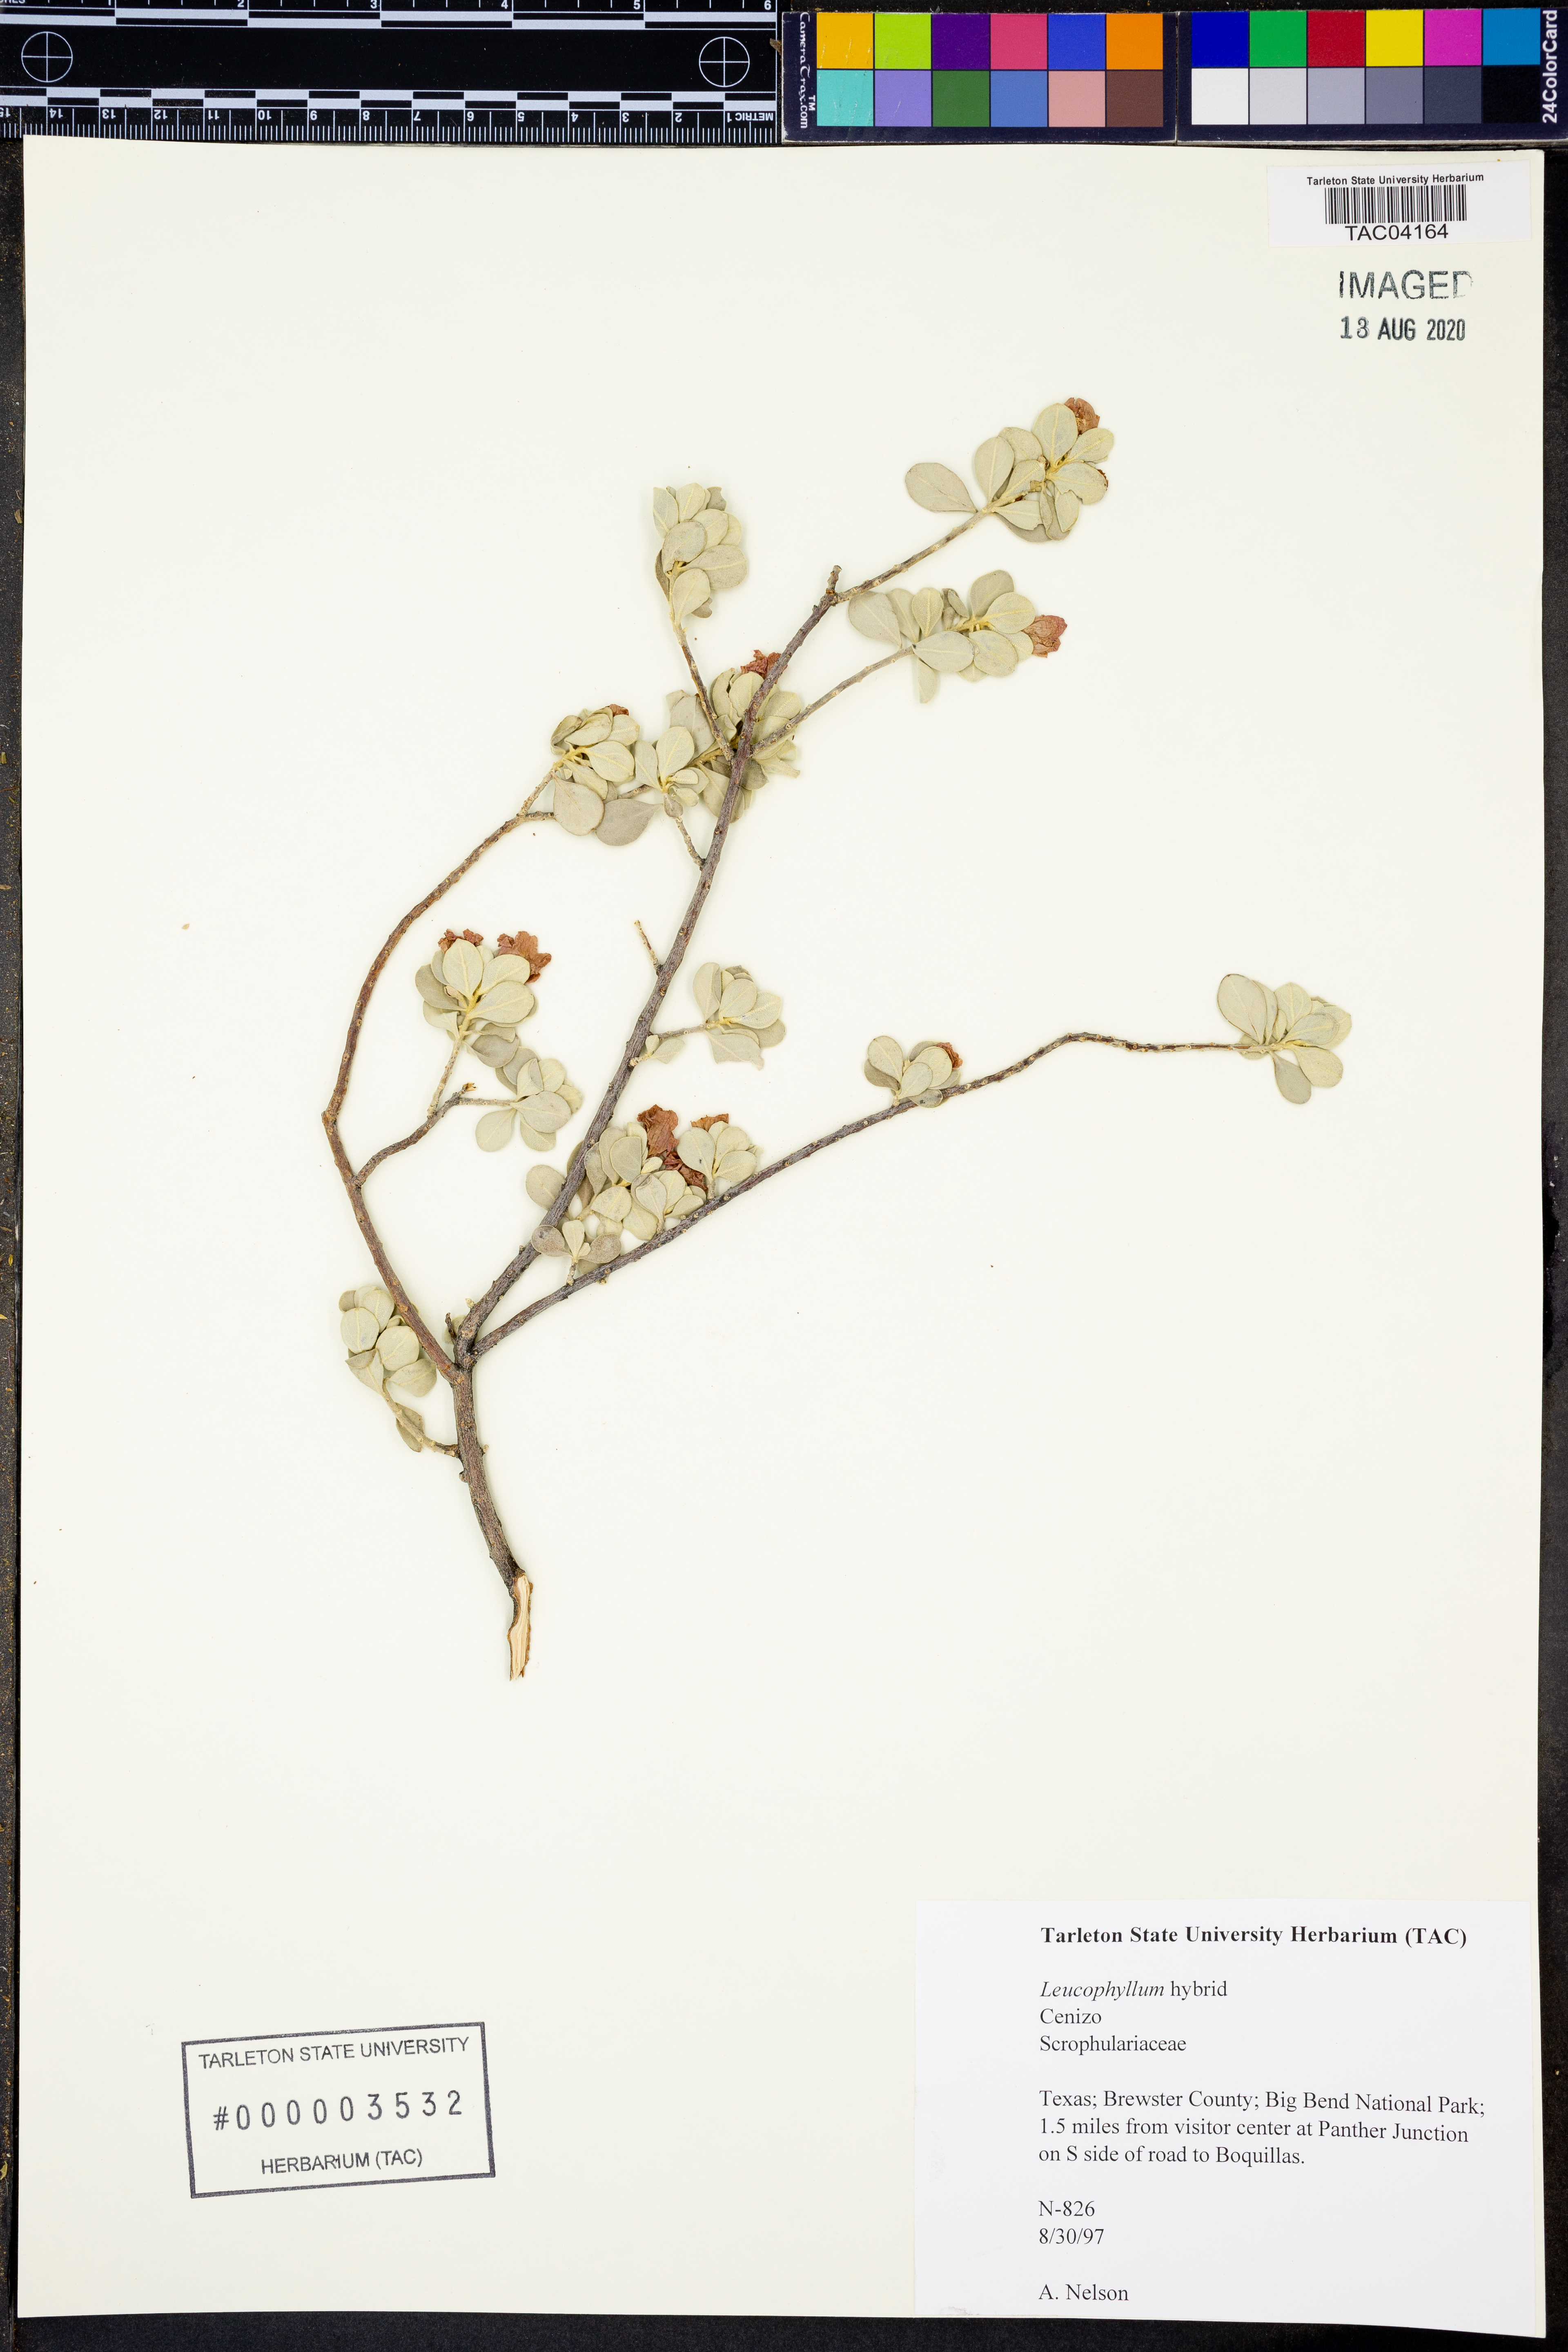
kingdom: Plantae
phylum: Tracheophyta
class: Magnoliopsida
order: Lamiales
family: Scrophulariaceae
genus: Leucophyllum
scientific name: Leucophyllum
